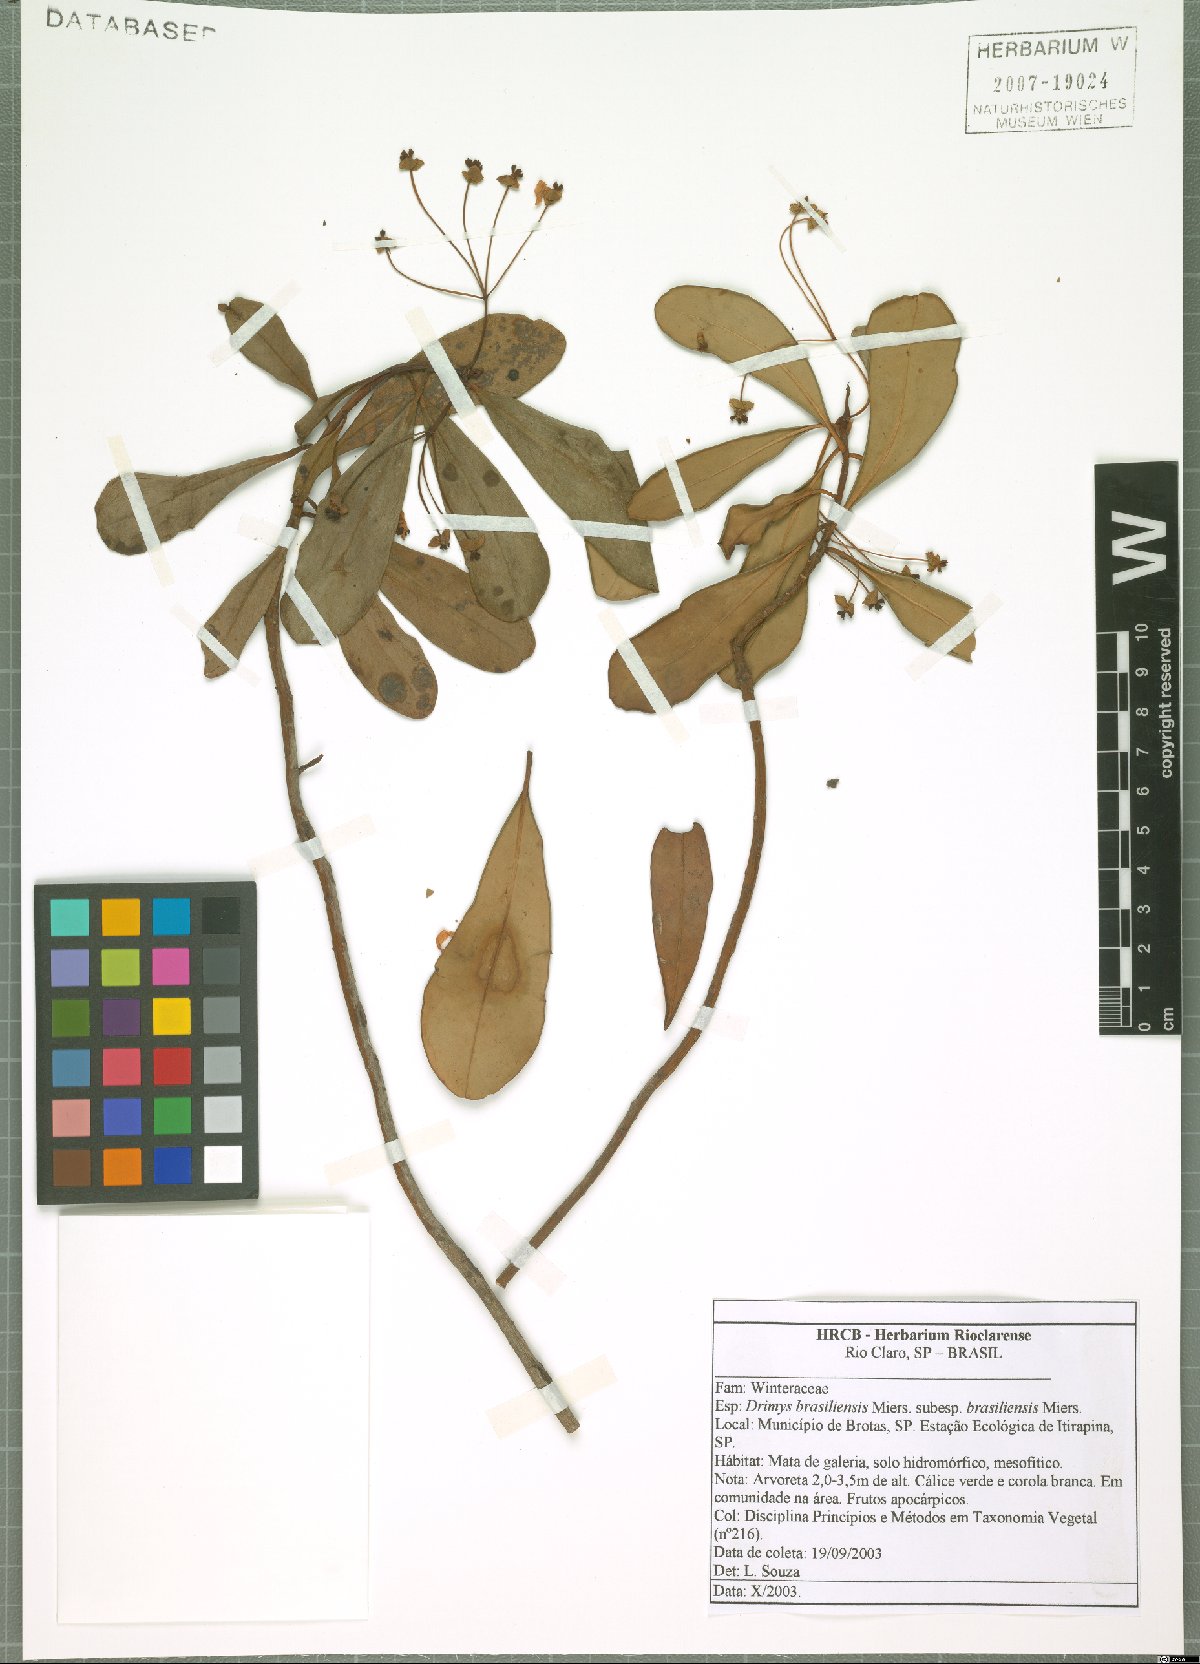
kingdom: Plantae
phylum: Tracheophyta
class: Magnoliopsida
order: Canellales
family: Winteraceae
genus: Drimys
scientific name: Drimys brasiliensis
